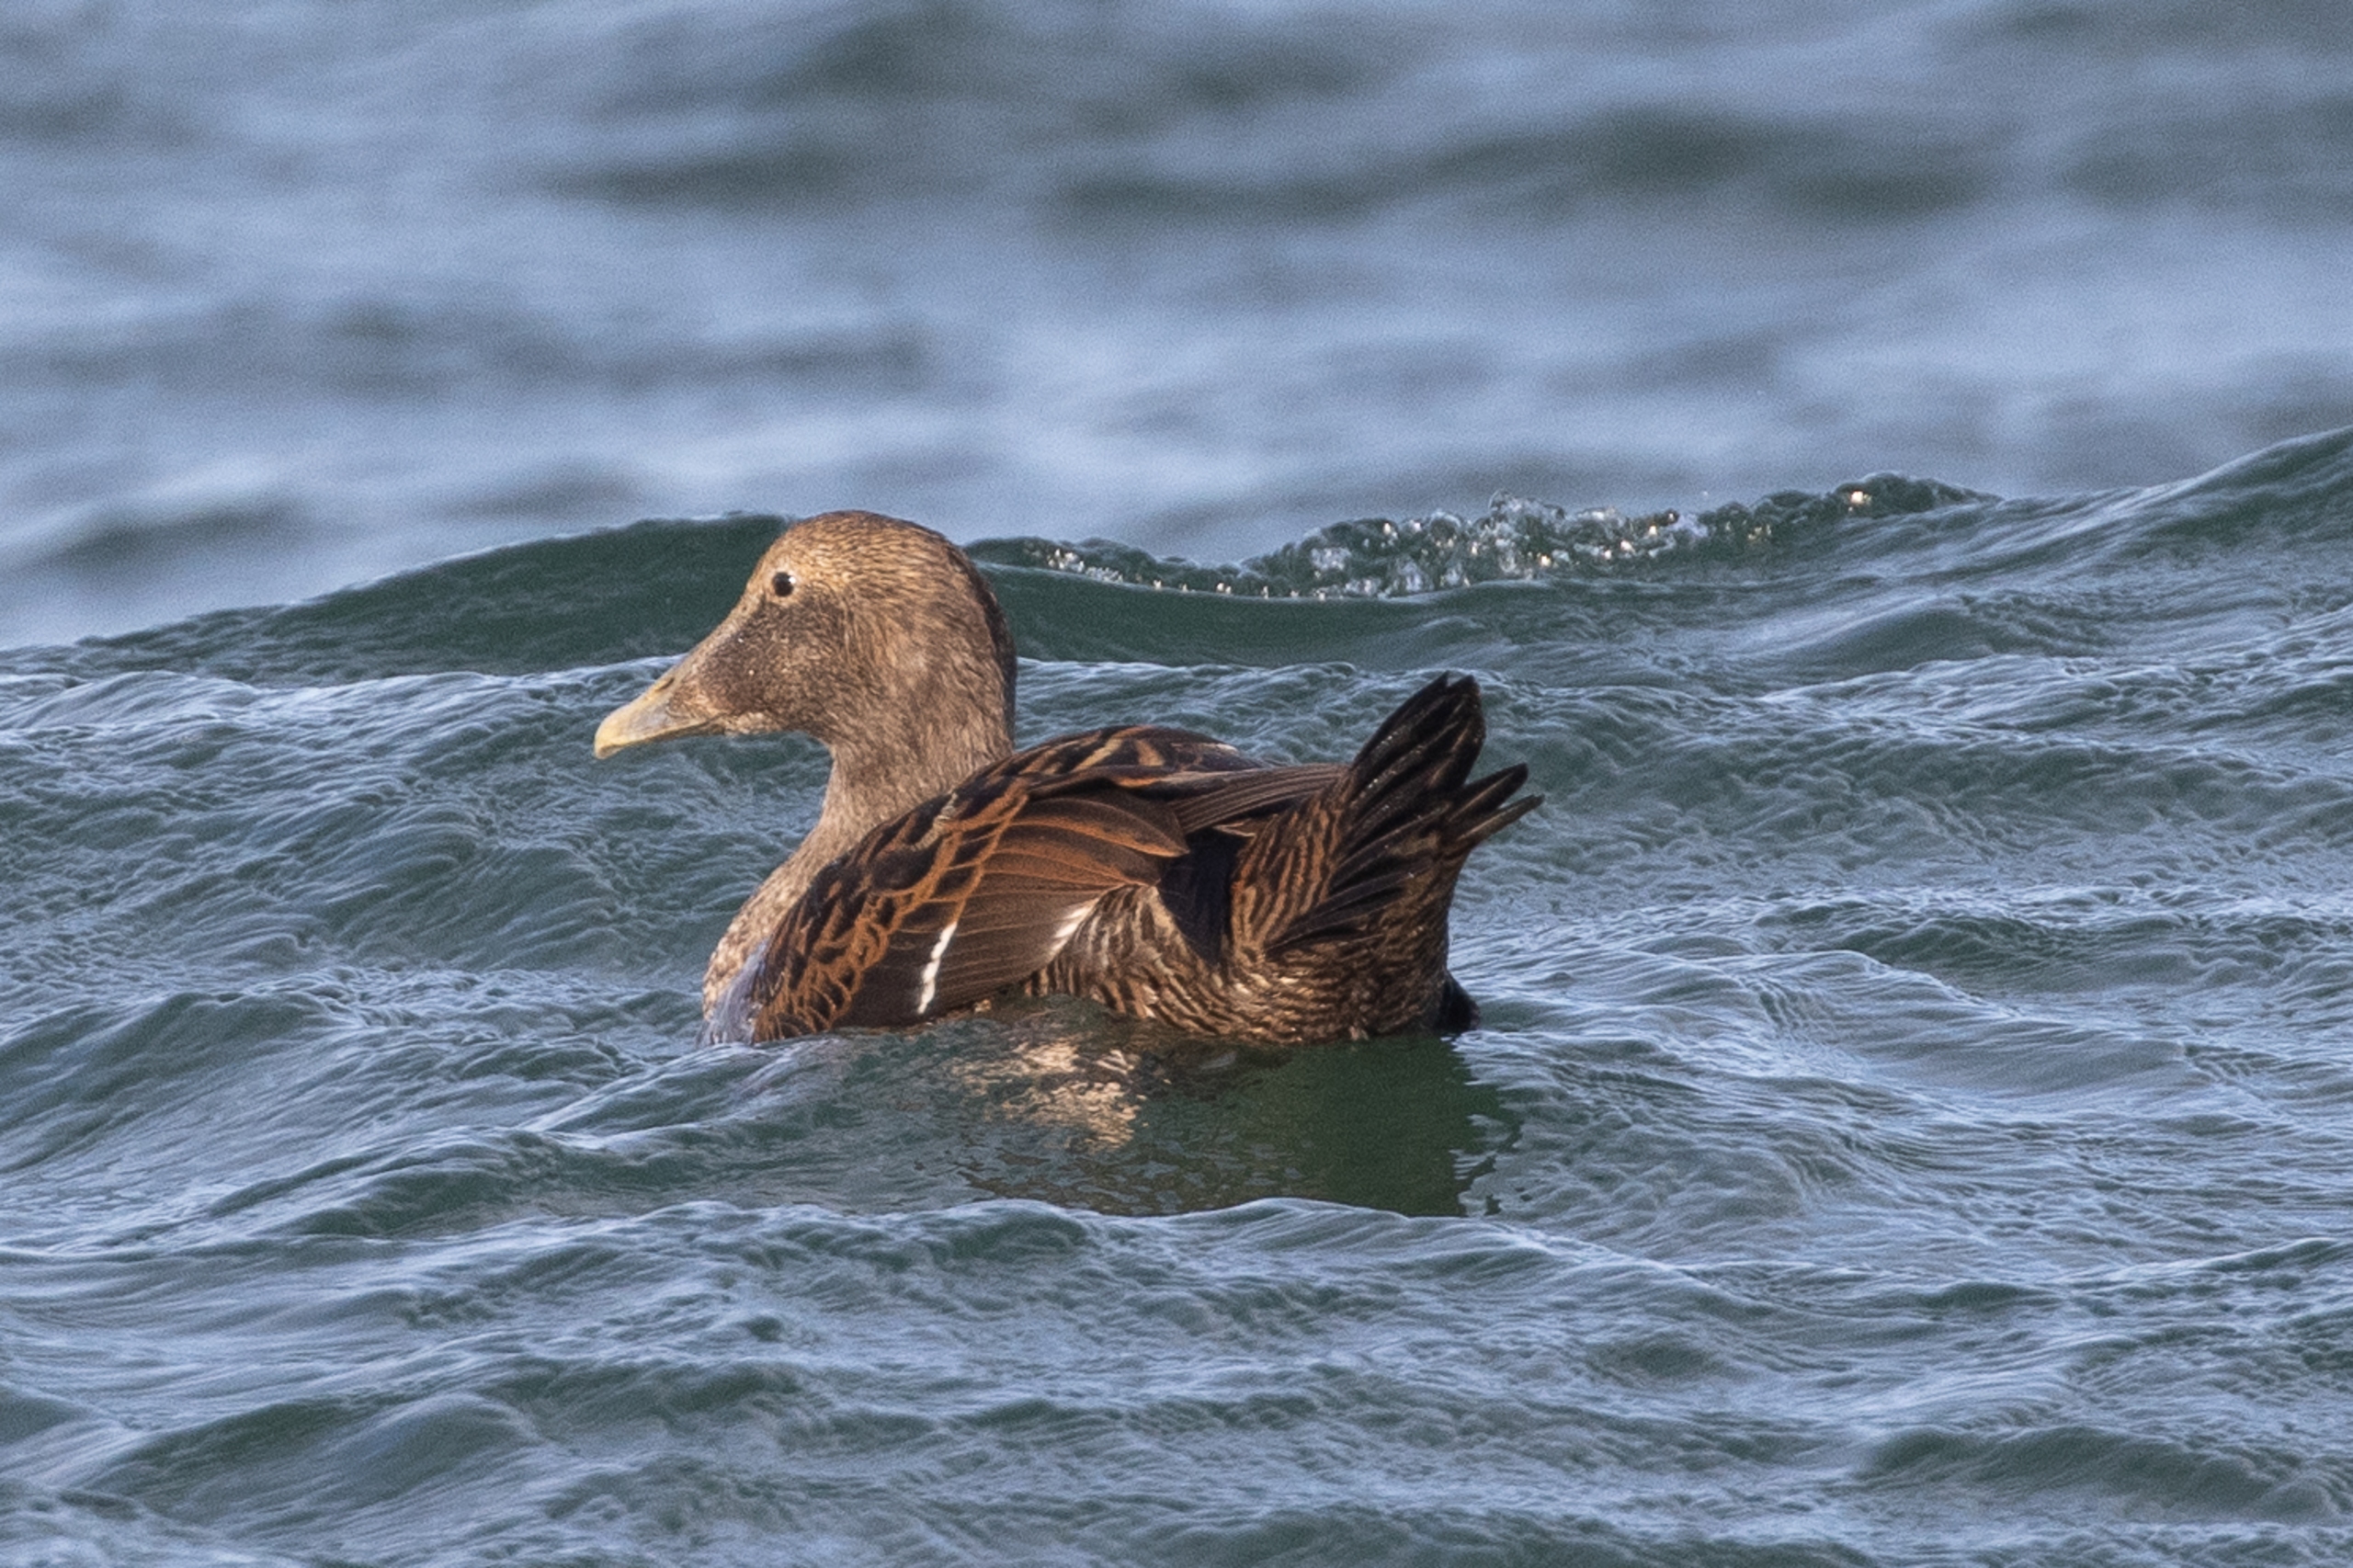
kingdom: Animalia
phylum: Chordata
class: Aves
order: Anseriformes
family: Anatidae
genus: Somateria
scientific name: Somateria mollissima
